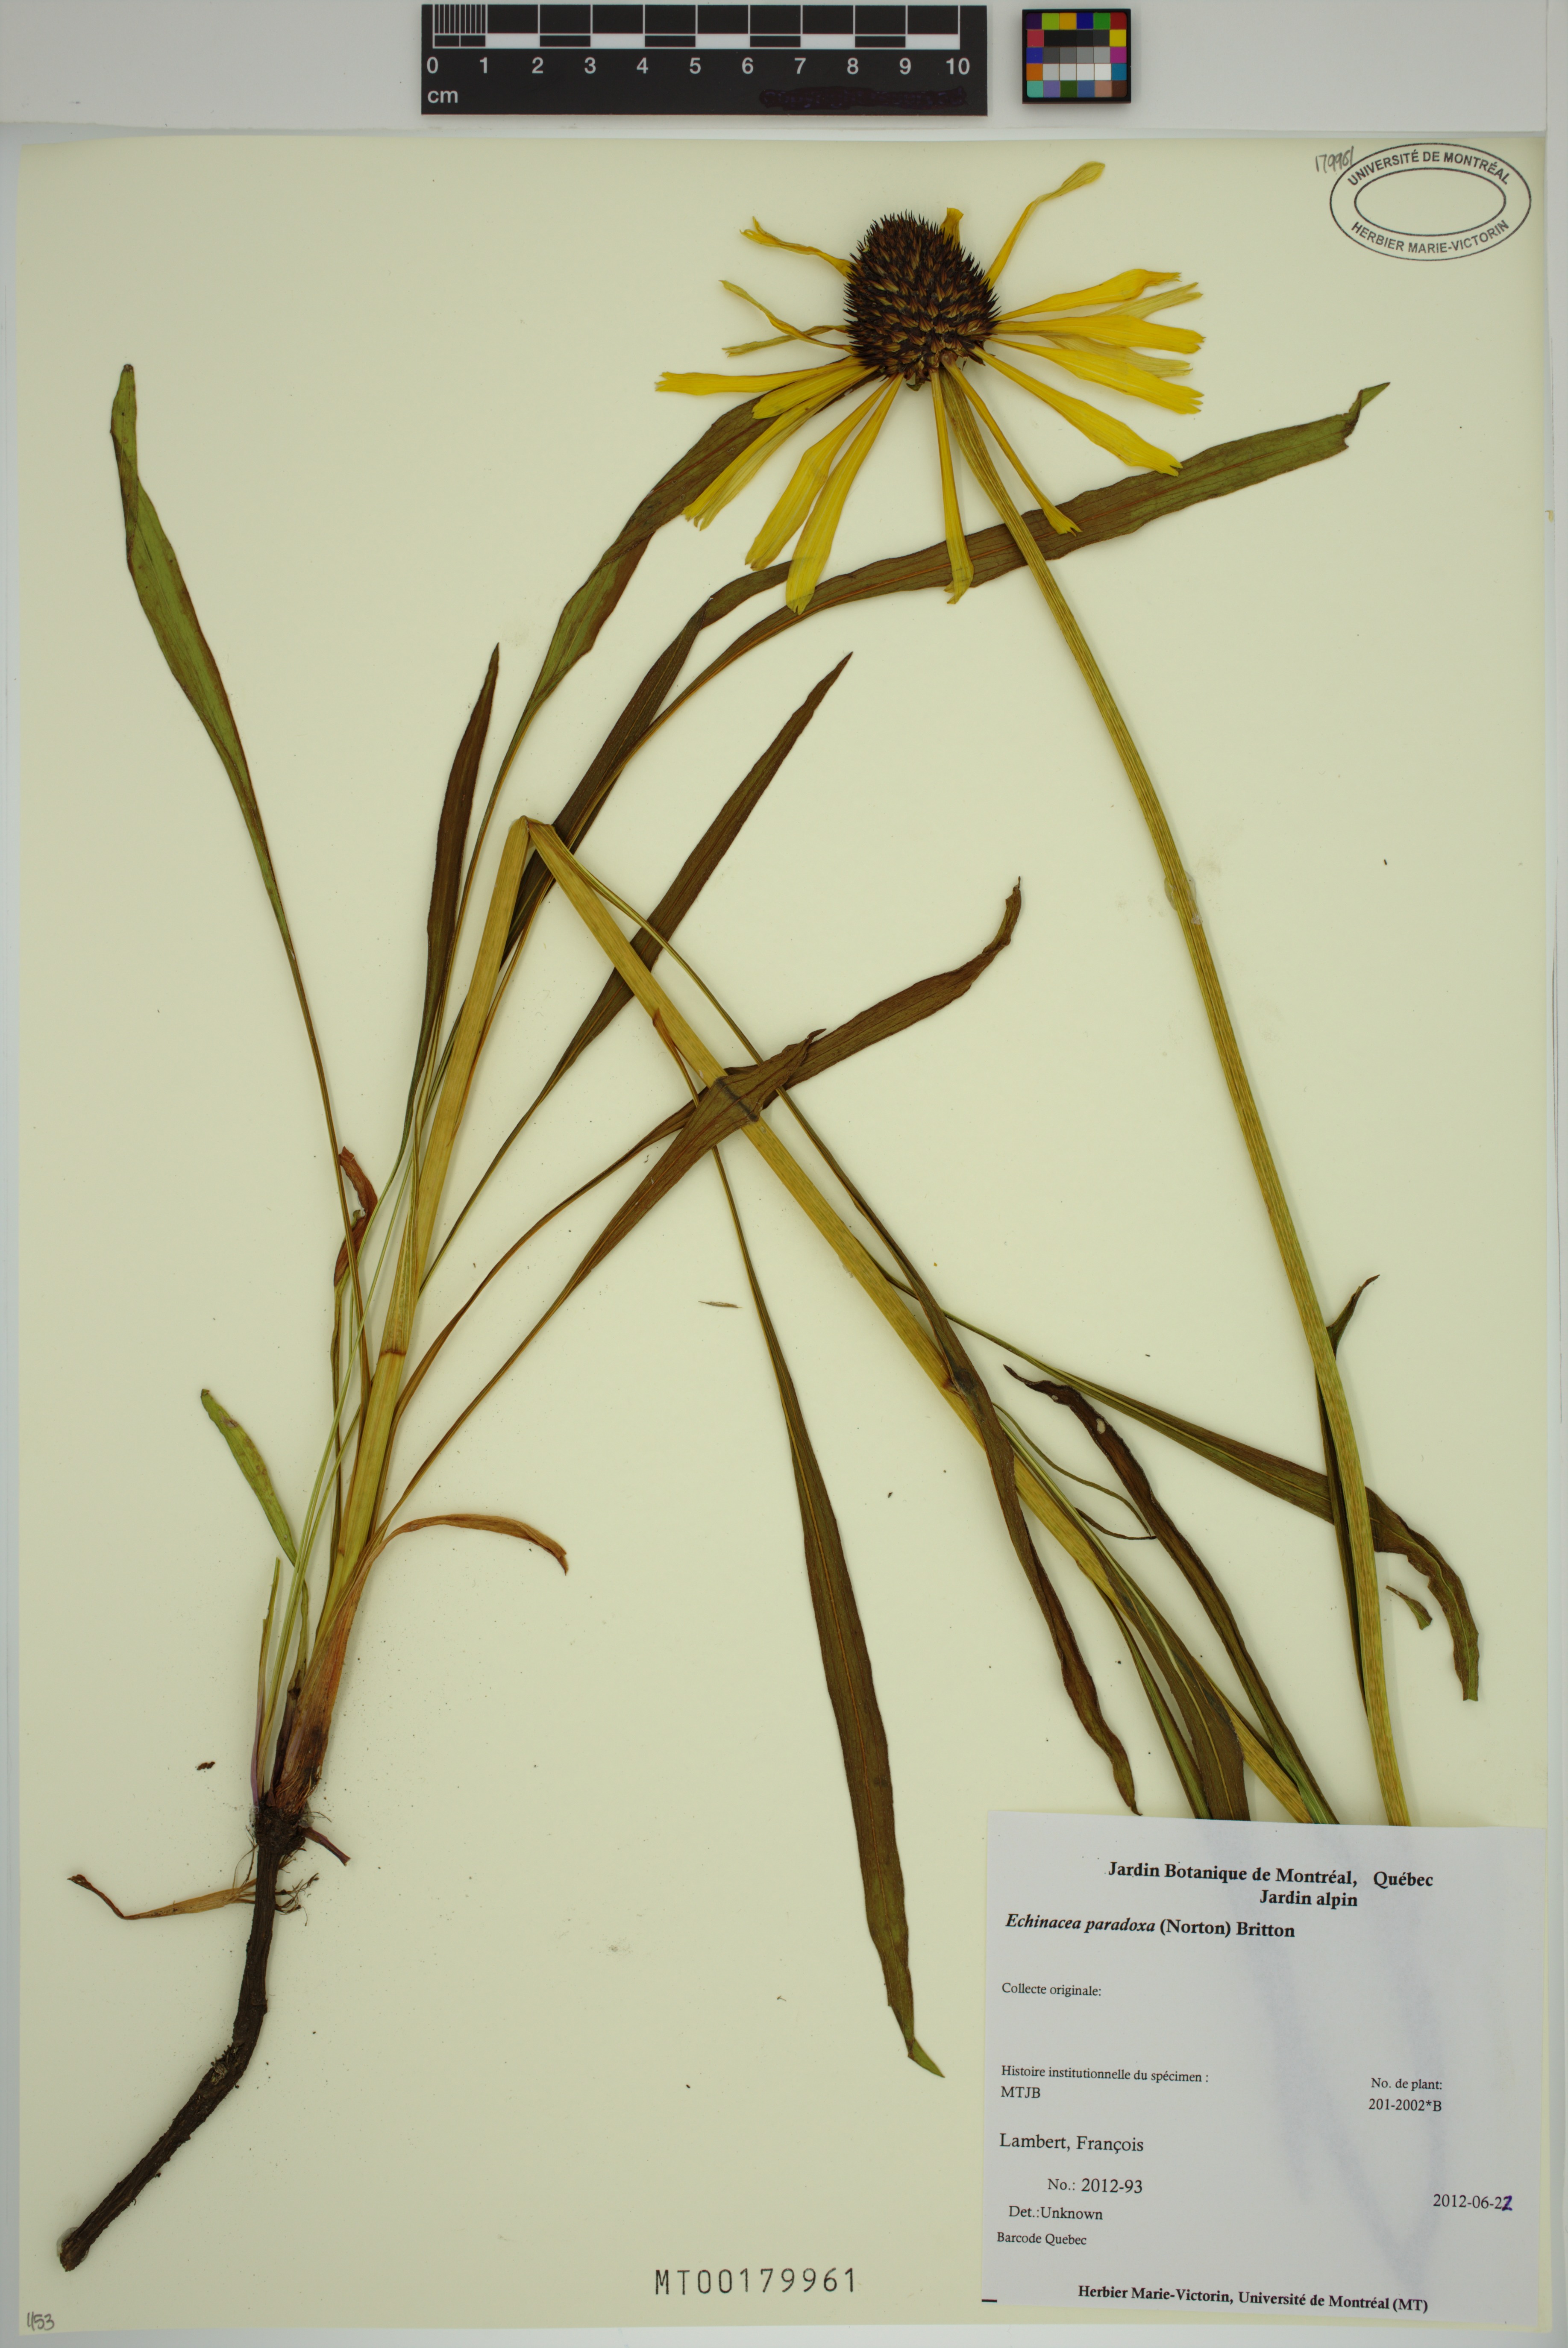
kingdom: Plantae
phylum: Tracheophyta
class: Magnoliopsida
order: Asterales
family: Asteraceae
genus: Echinacea
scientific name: Echinacea paradoxa
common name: Bush's purple-coneflower
